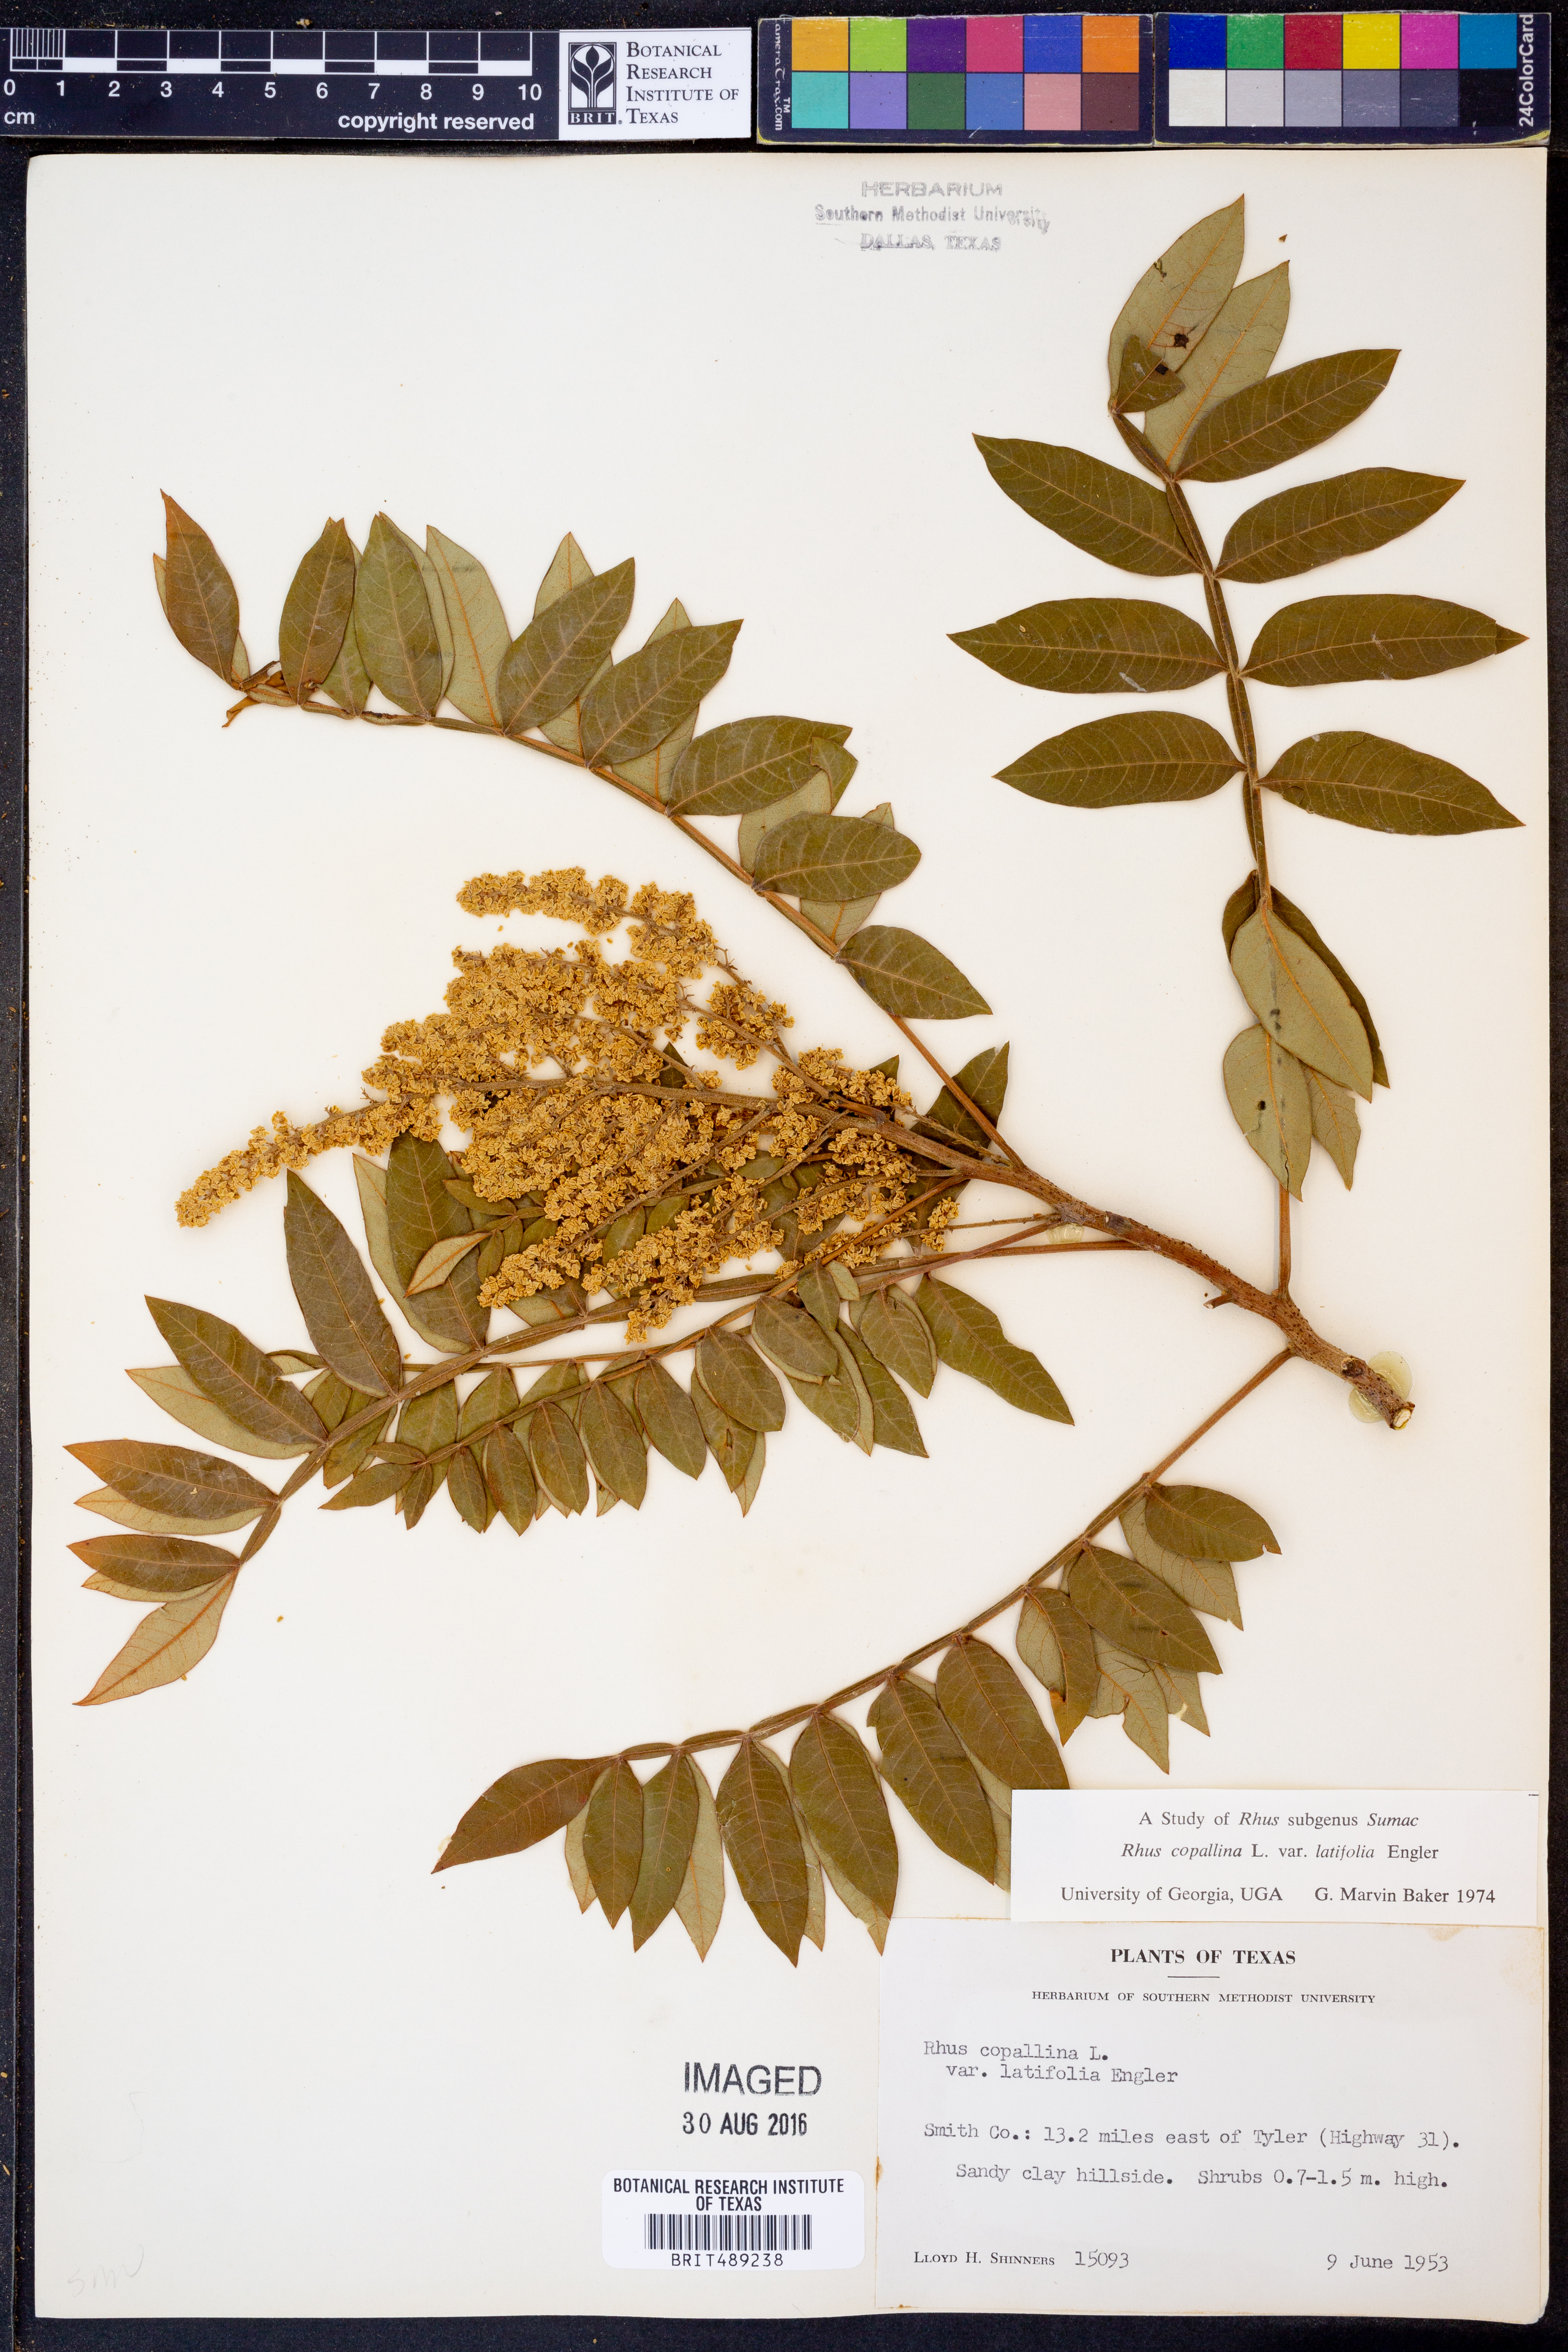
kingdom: Plantae
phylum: Tracheophyta
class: Magnoliopsida
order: Sapindales
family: Anacardiaceae
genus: Rhus
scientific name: Rhus copallina
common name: Shining sumac
